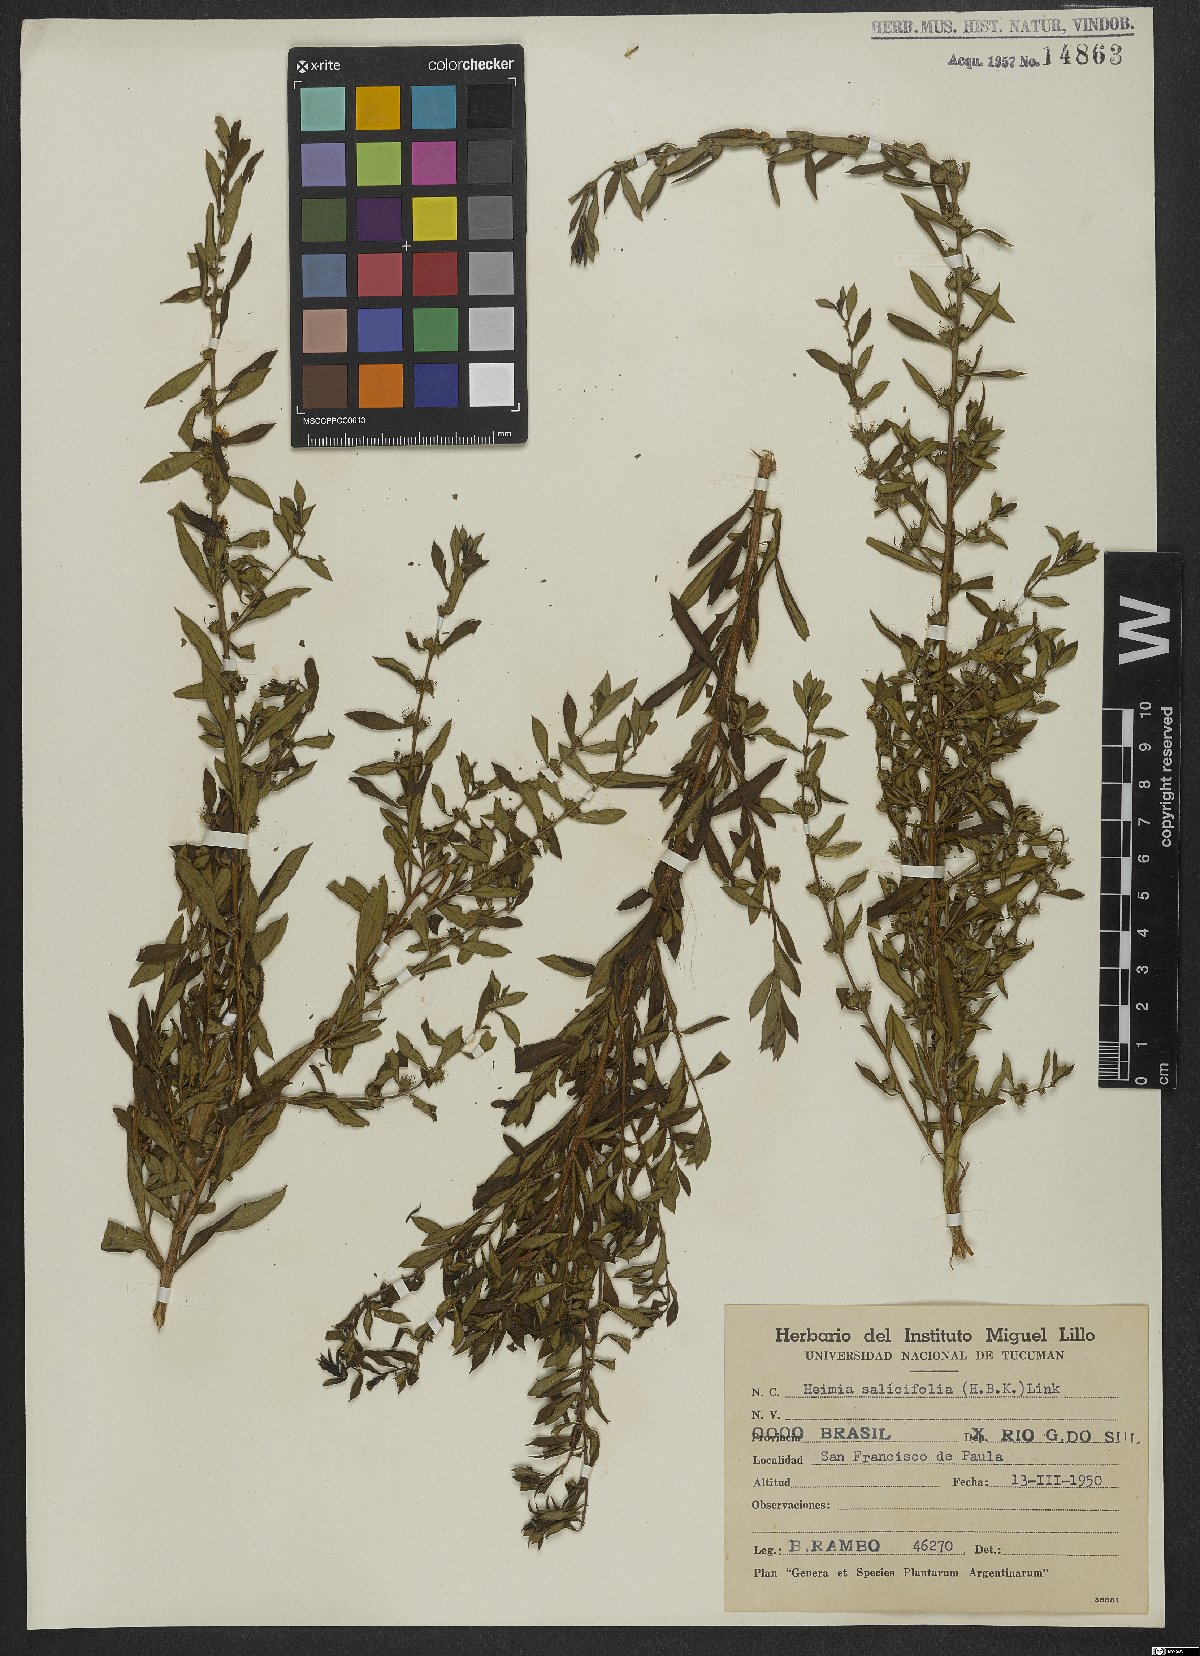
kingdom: Plantae
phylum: Tracheophyta
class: Magnoliopsida
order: Myrtales
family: Lythraceae
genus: Heimia
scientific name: Heimia salicifolia
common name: Willow-leaf heimia
